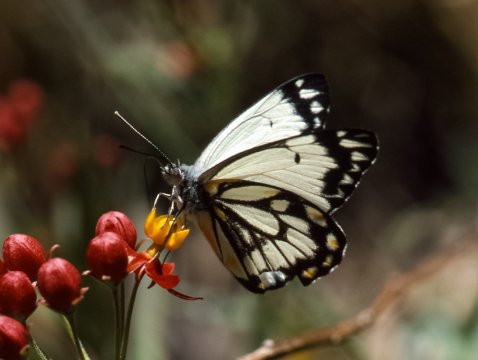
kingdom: Animalia
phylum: Arthropoda
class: Insecta
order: Lepidoptera
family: Pieridae
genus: Belenois
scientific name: Belenois java
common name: Caper White
